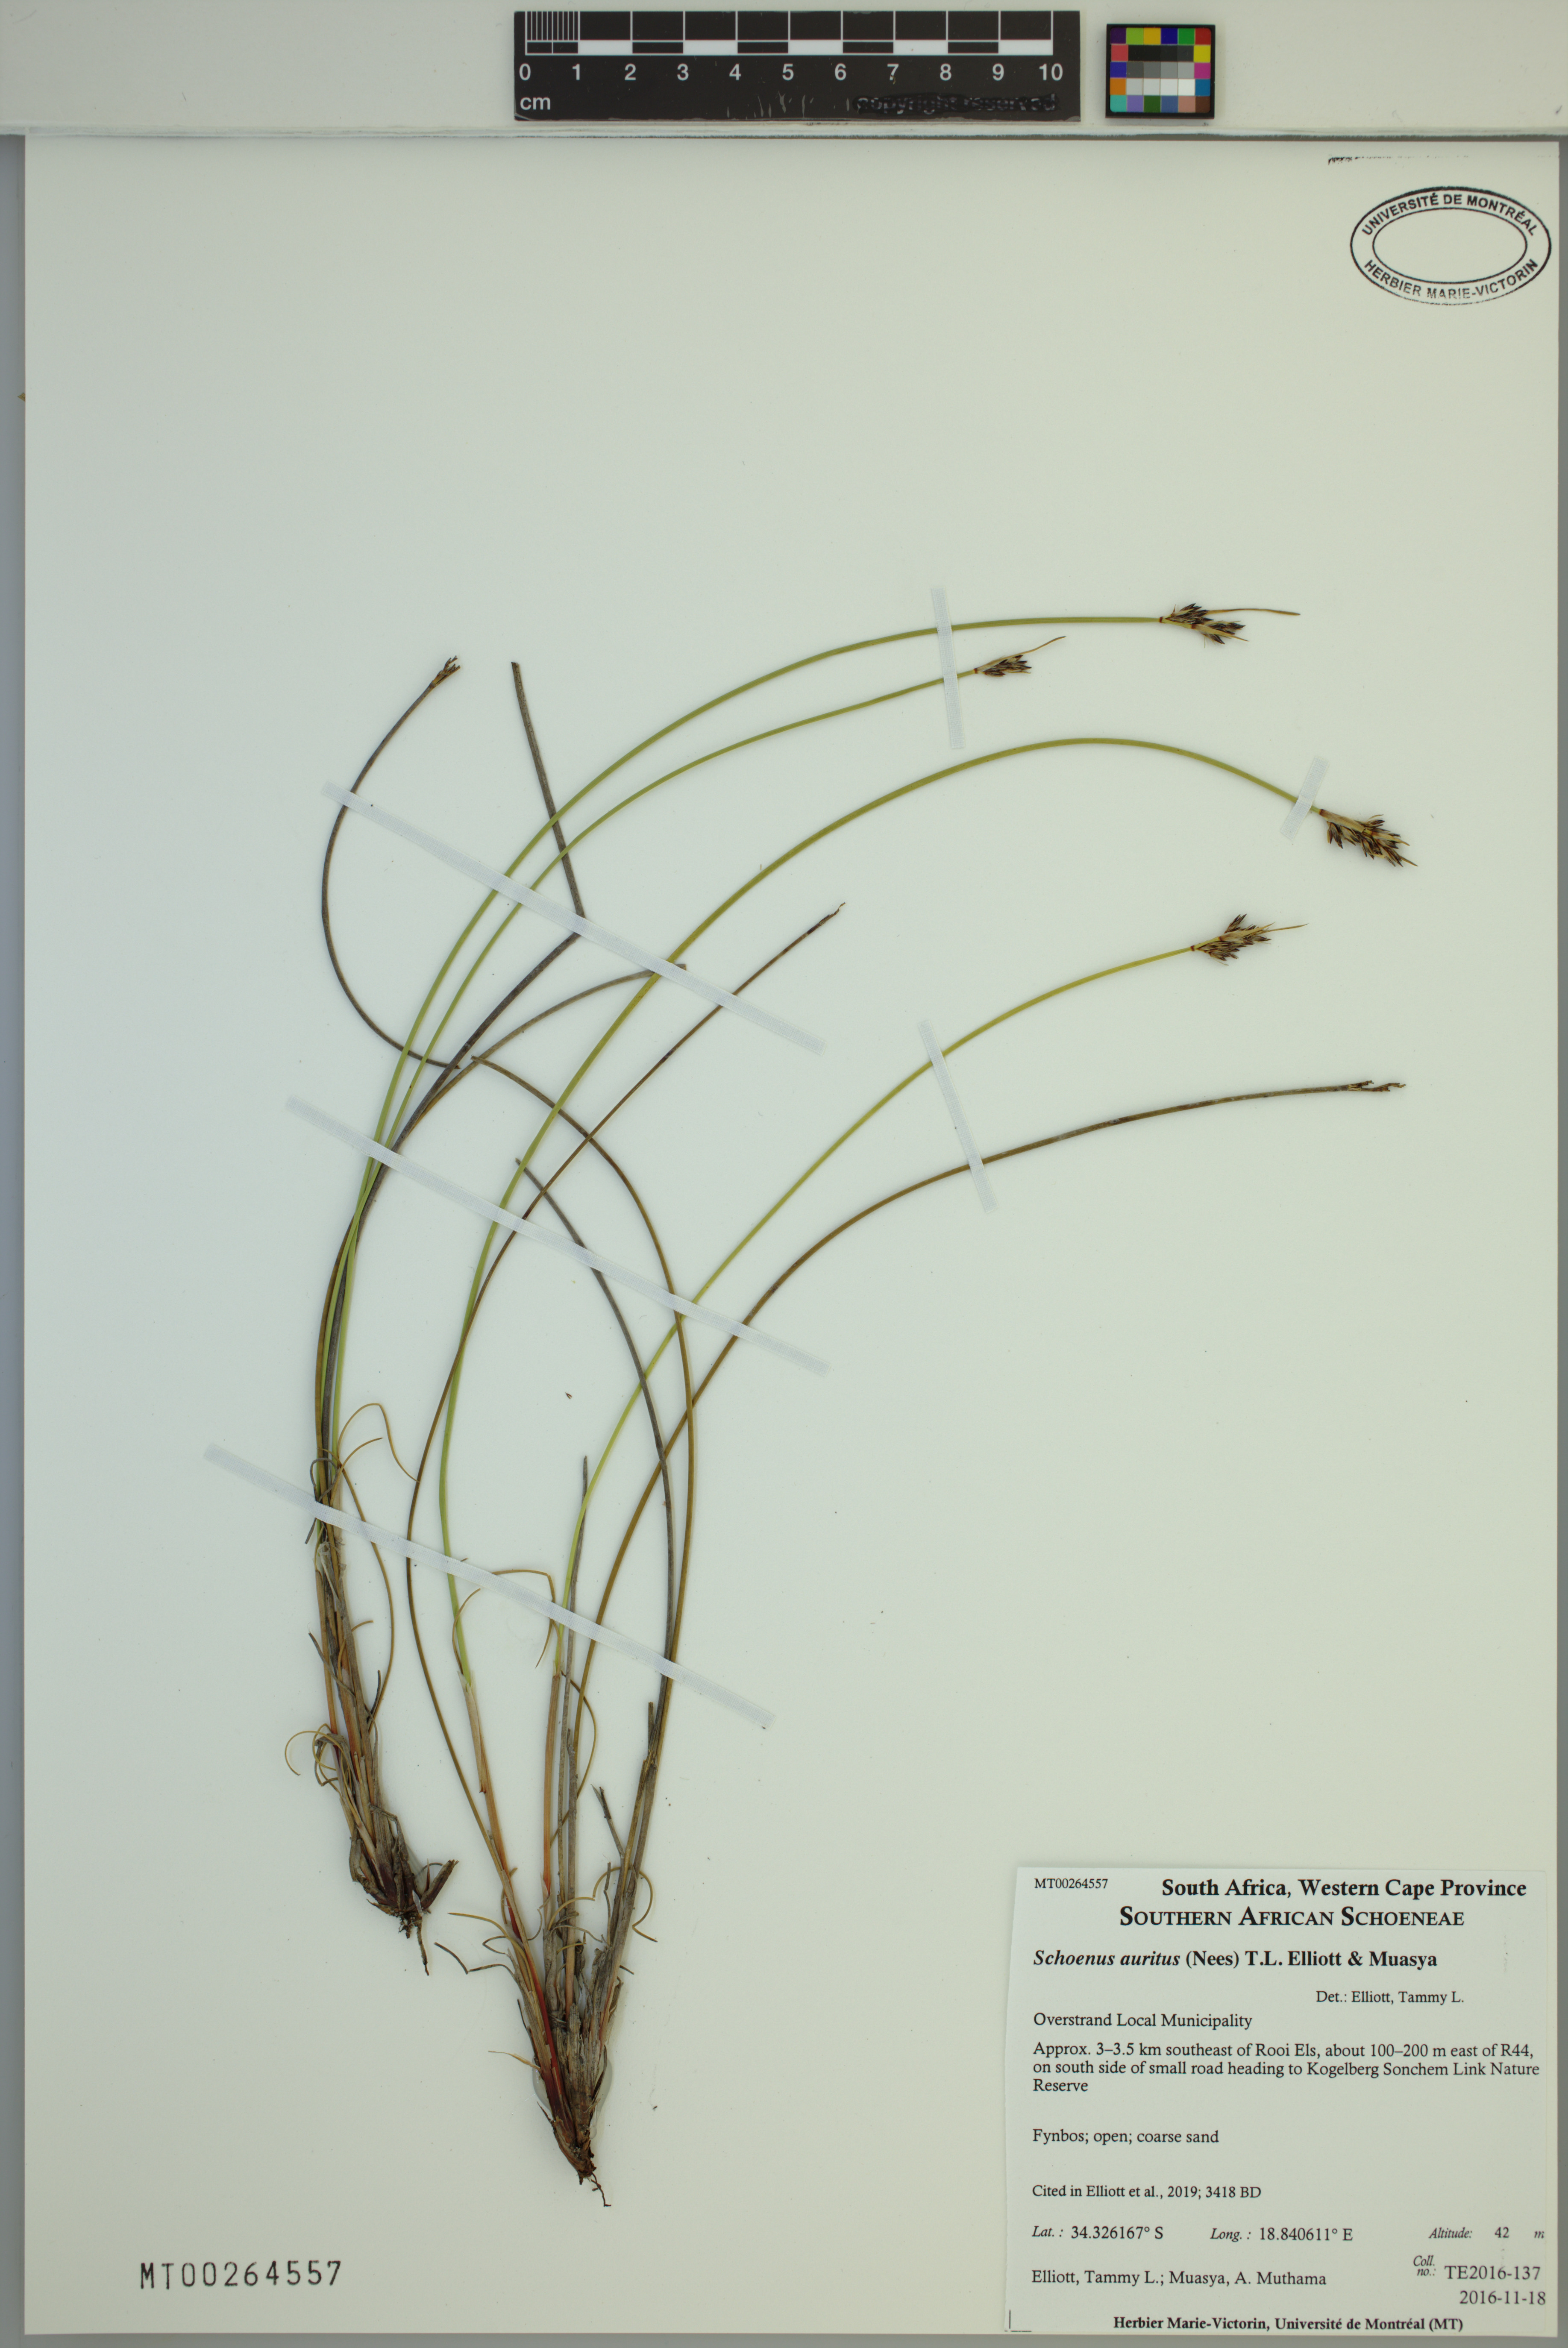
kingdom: Plantae
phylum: Tracheophyta
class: Liliopsida
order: Poales
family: Cyperaceae
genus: Schoenus
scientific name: Schoenus auritus
